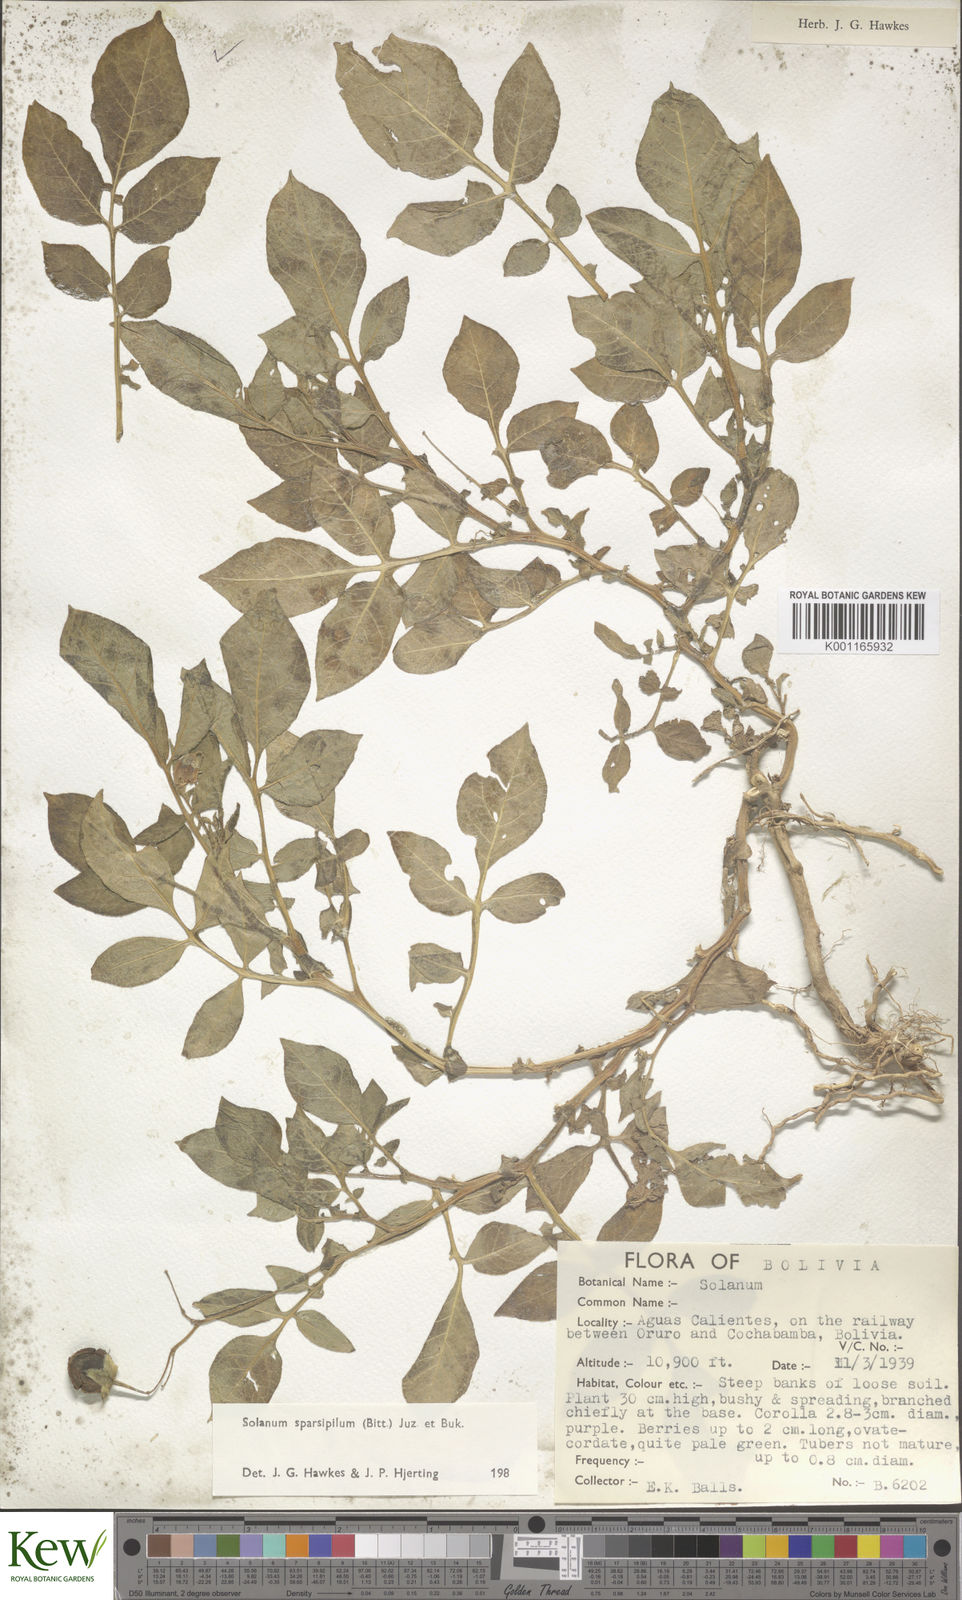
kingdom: Plantae
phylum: Tracheophyta
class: Magnoliopsida
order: Solanales
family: Solanaceae
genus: Solanum
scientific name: Solanum brevicaule
